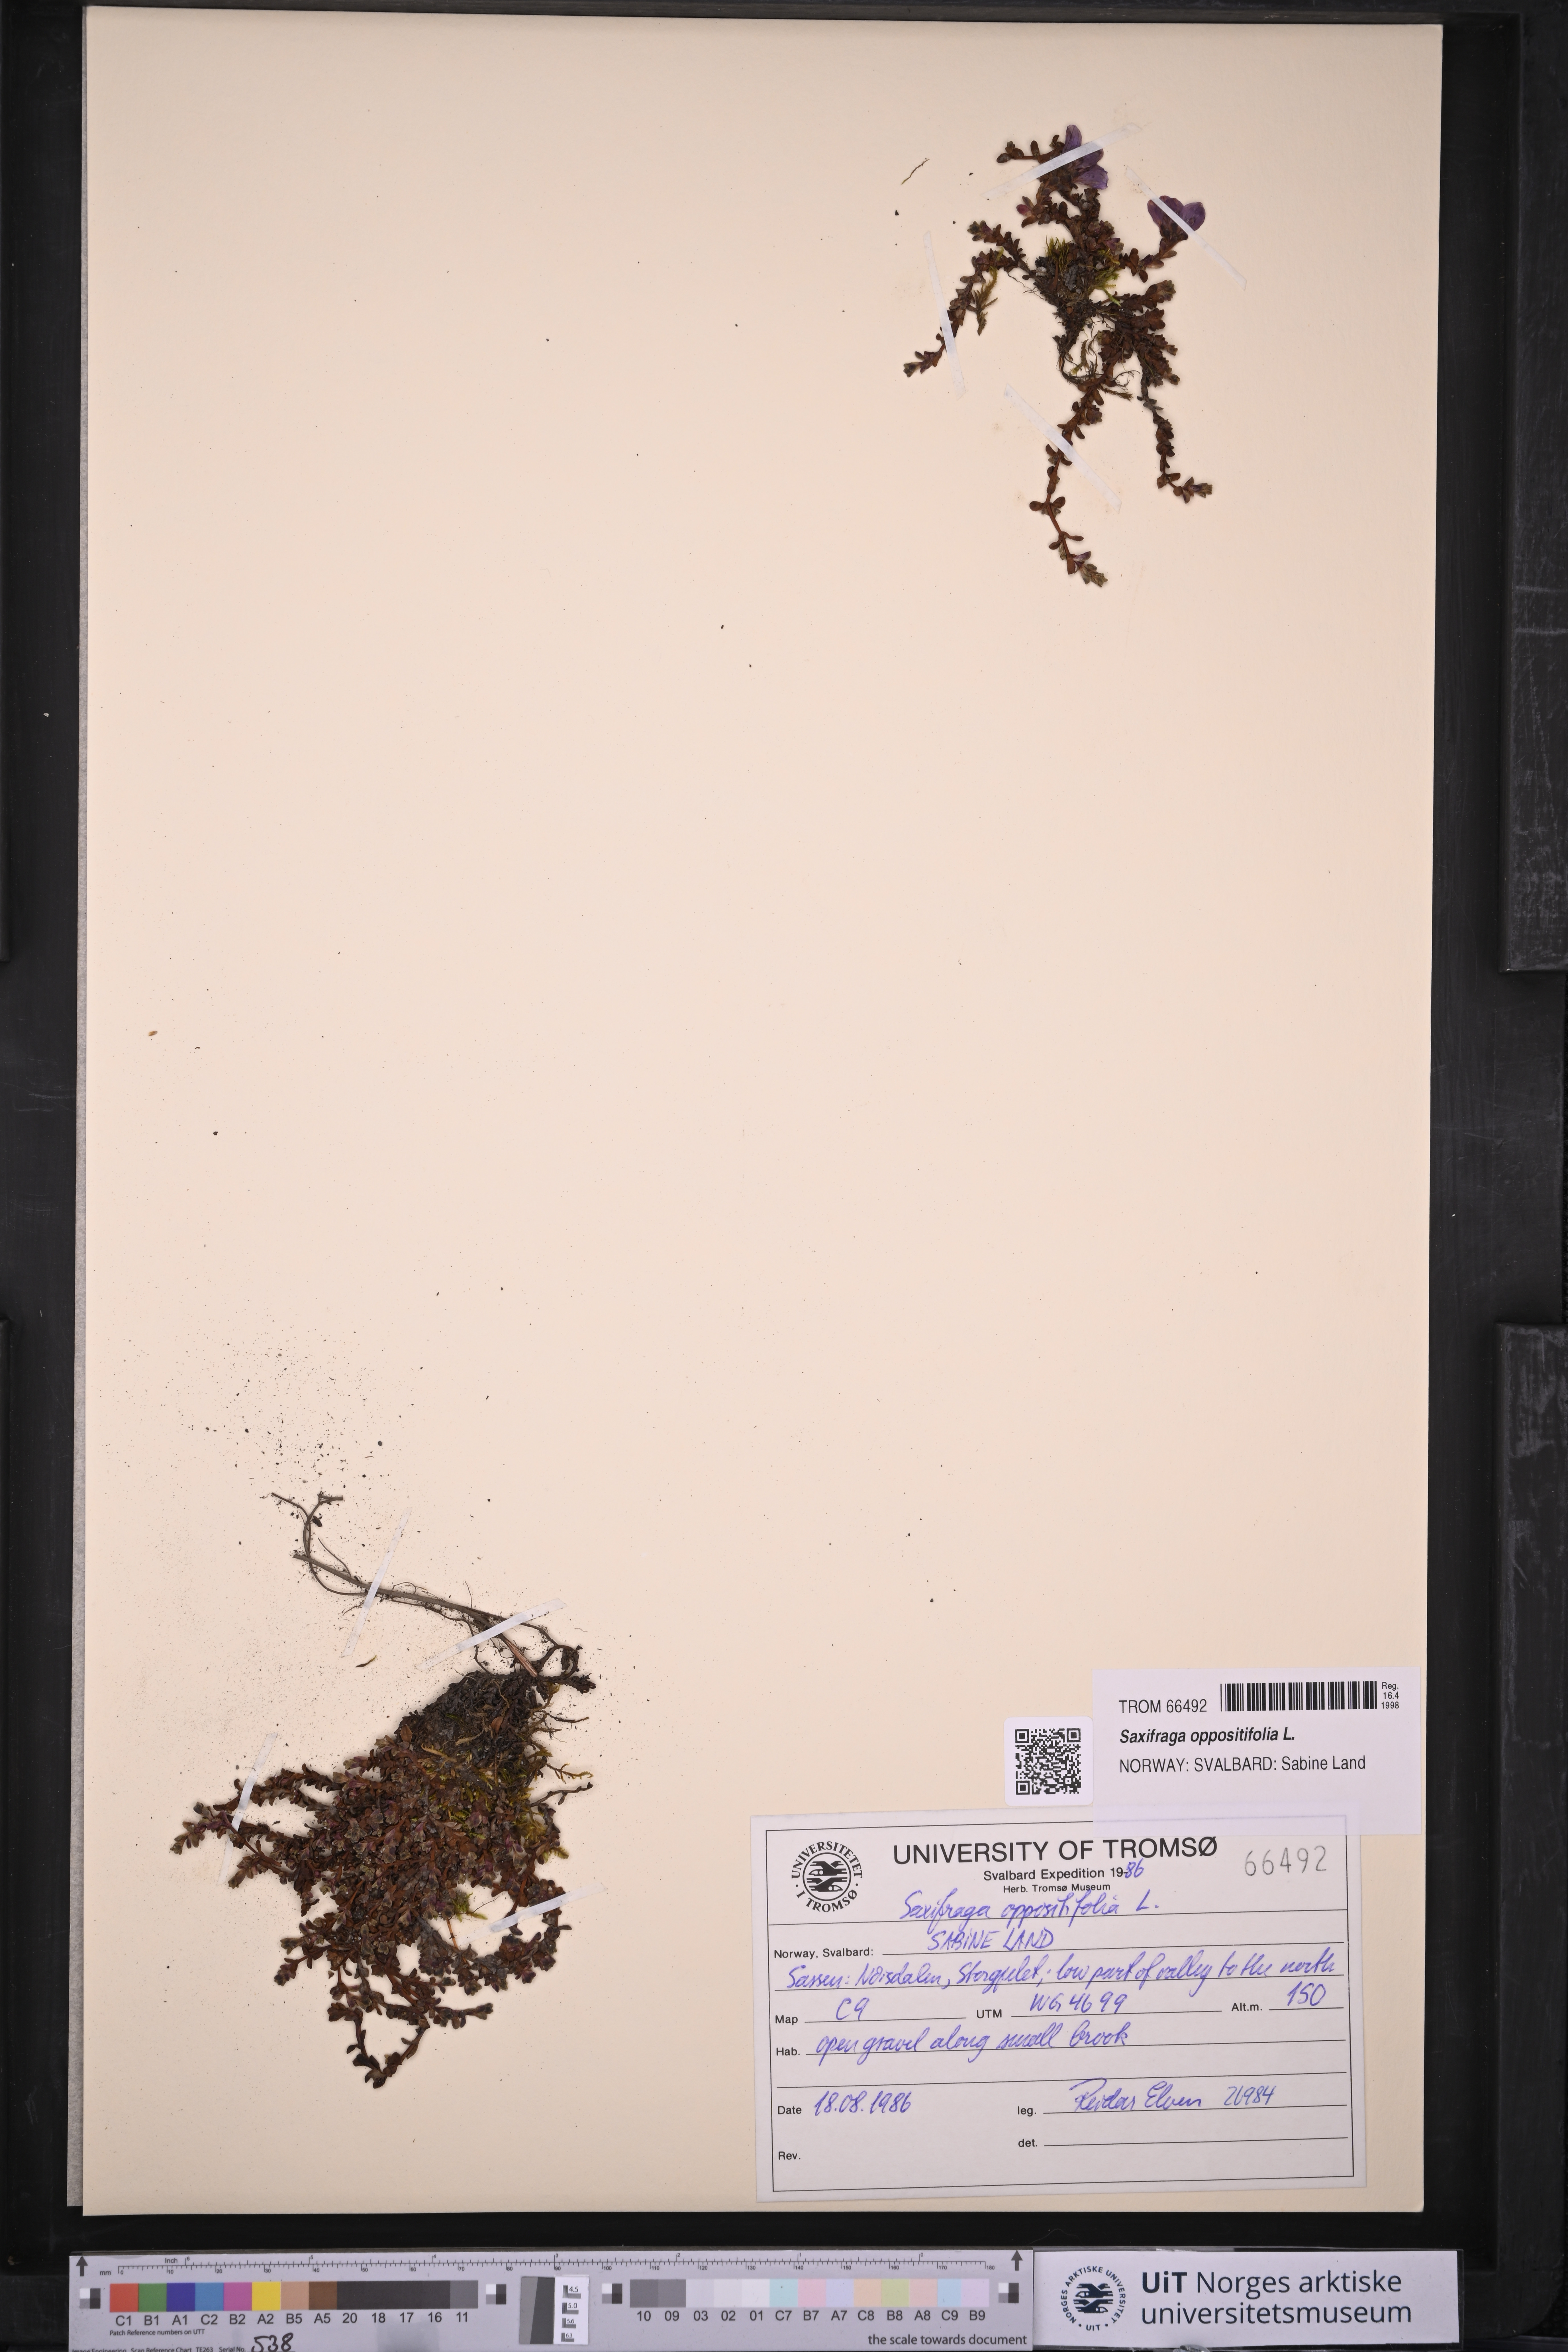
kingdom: Plantae
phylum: Tracheophyta
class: Magnoliopsida
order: Saxifragales
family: Saxifragaceae
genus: Saxifraga
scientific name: Saxifraga oppositifolia
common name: Purple saxifrage
